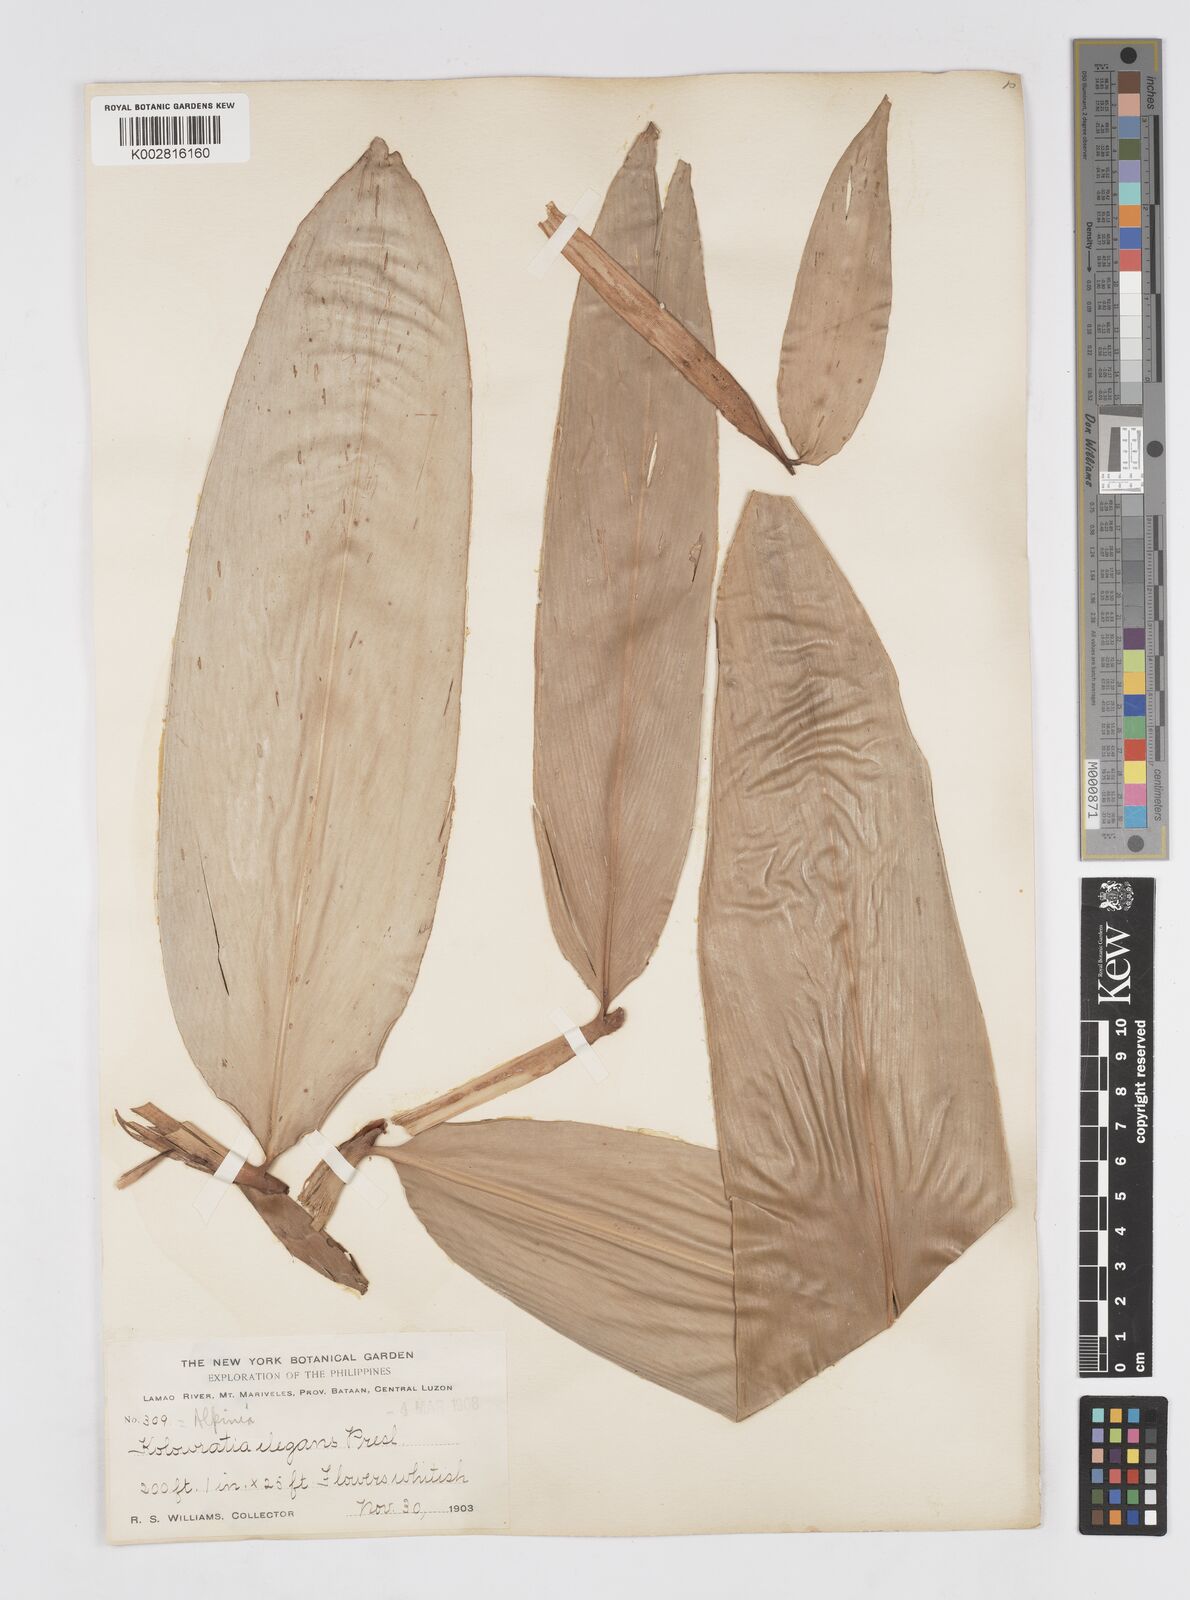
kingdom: Plantae
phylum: Tracheophyta
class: Liliopsida
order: Zingiberales
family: Zingiberaceae
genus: Alpinia
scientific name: Alpinia elegans
